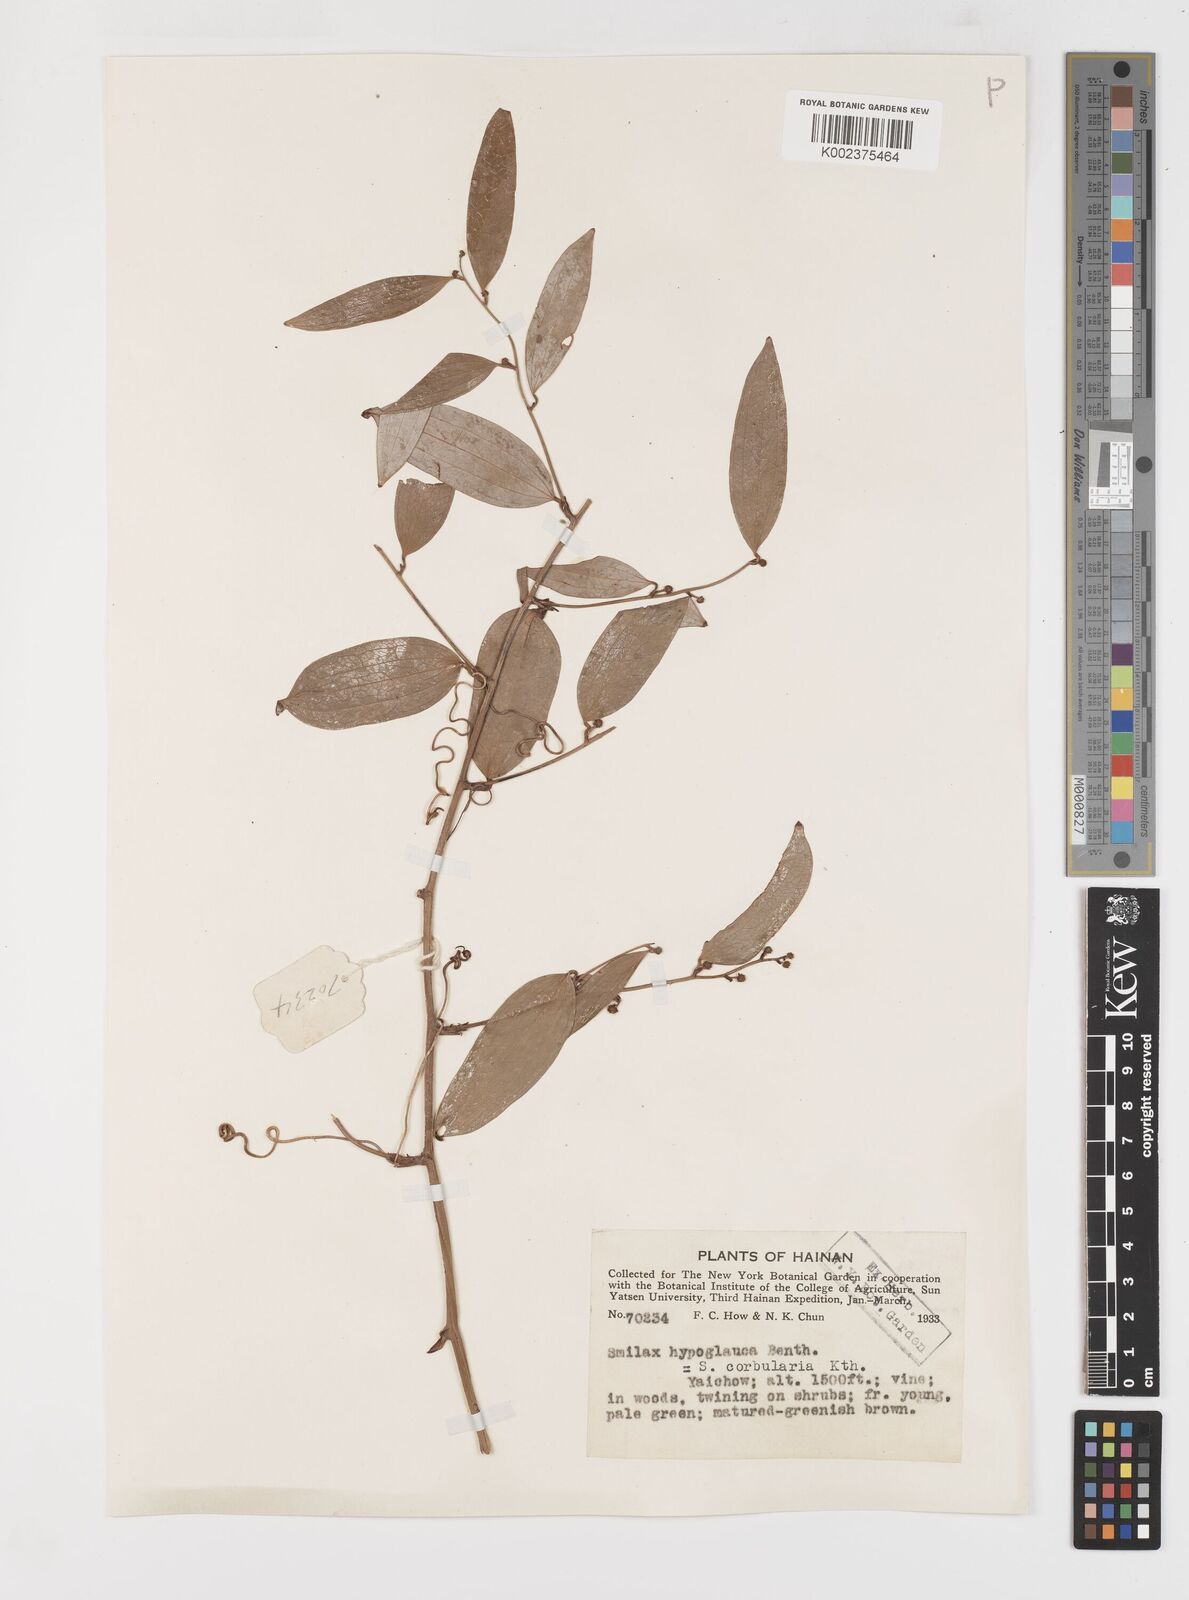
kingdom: Plantae
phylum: Tracheophyta
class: Liliopsida
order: Liliales
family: Smilacaceae
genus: Smilax
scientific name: Smilax hypoglauca
